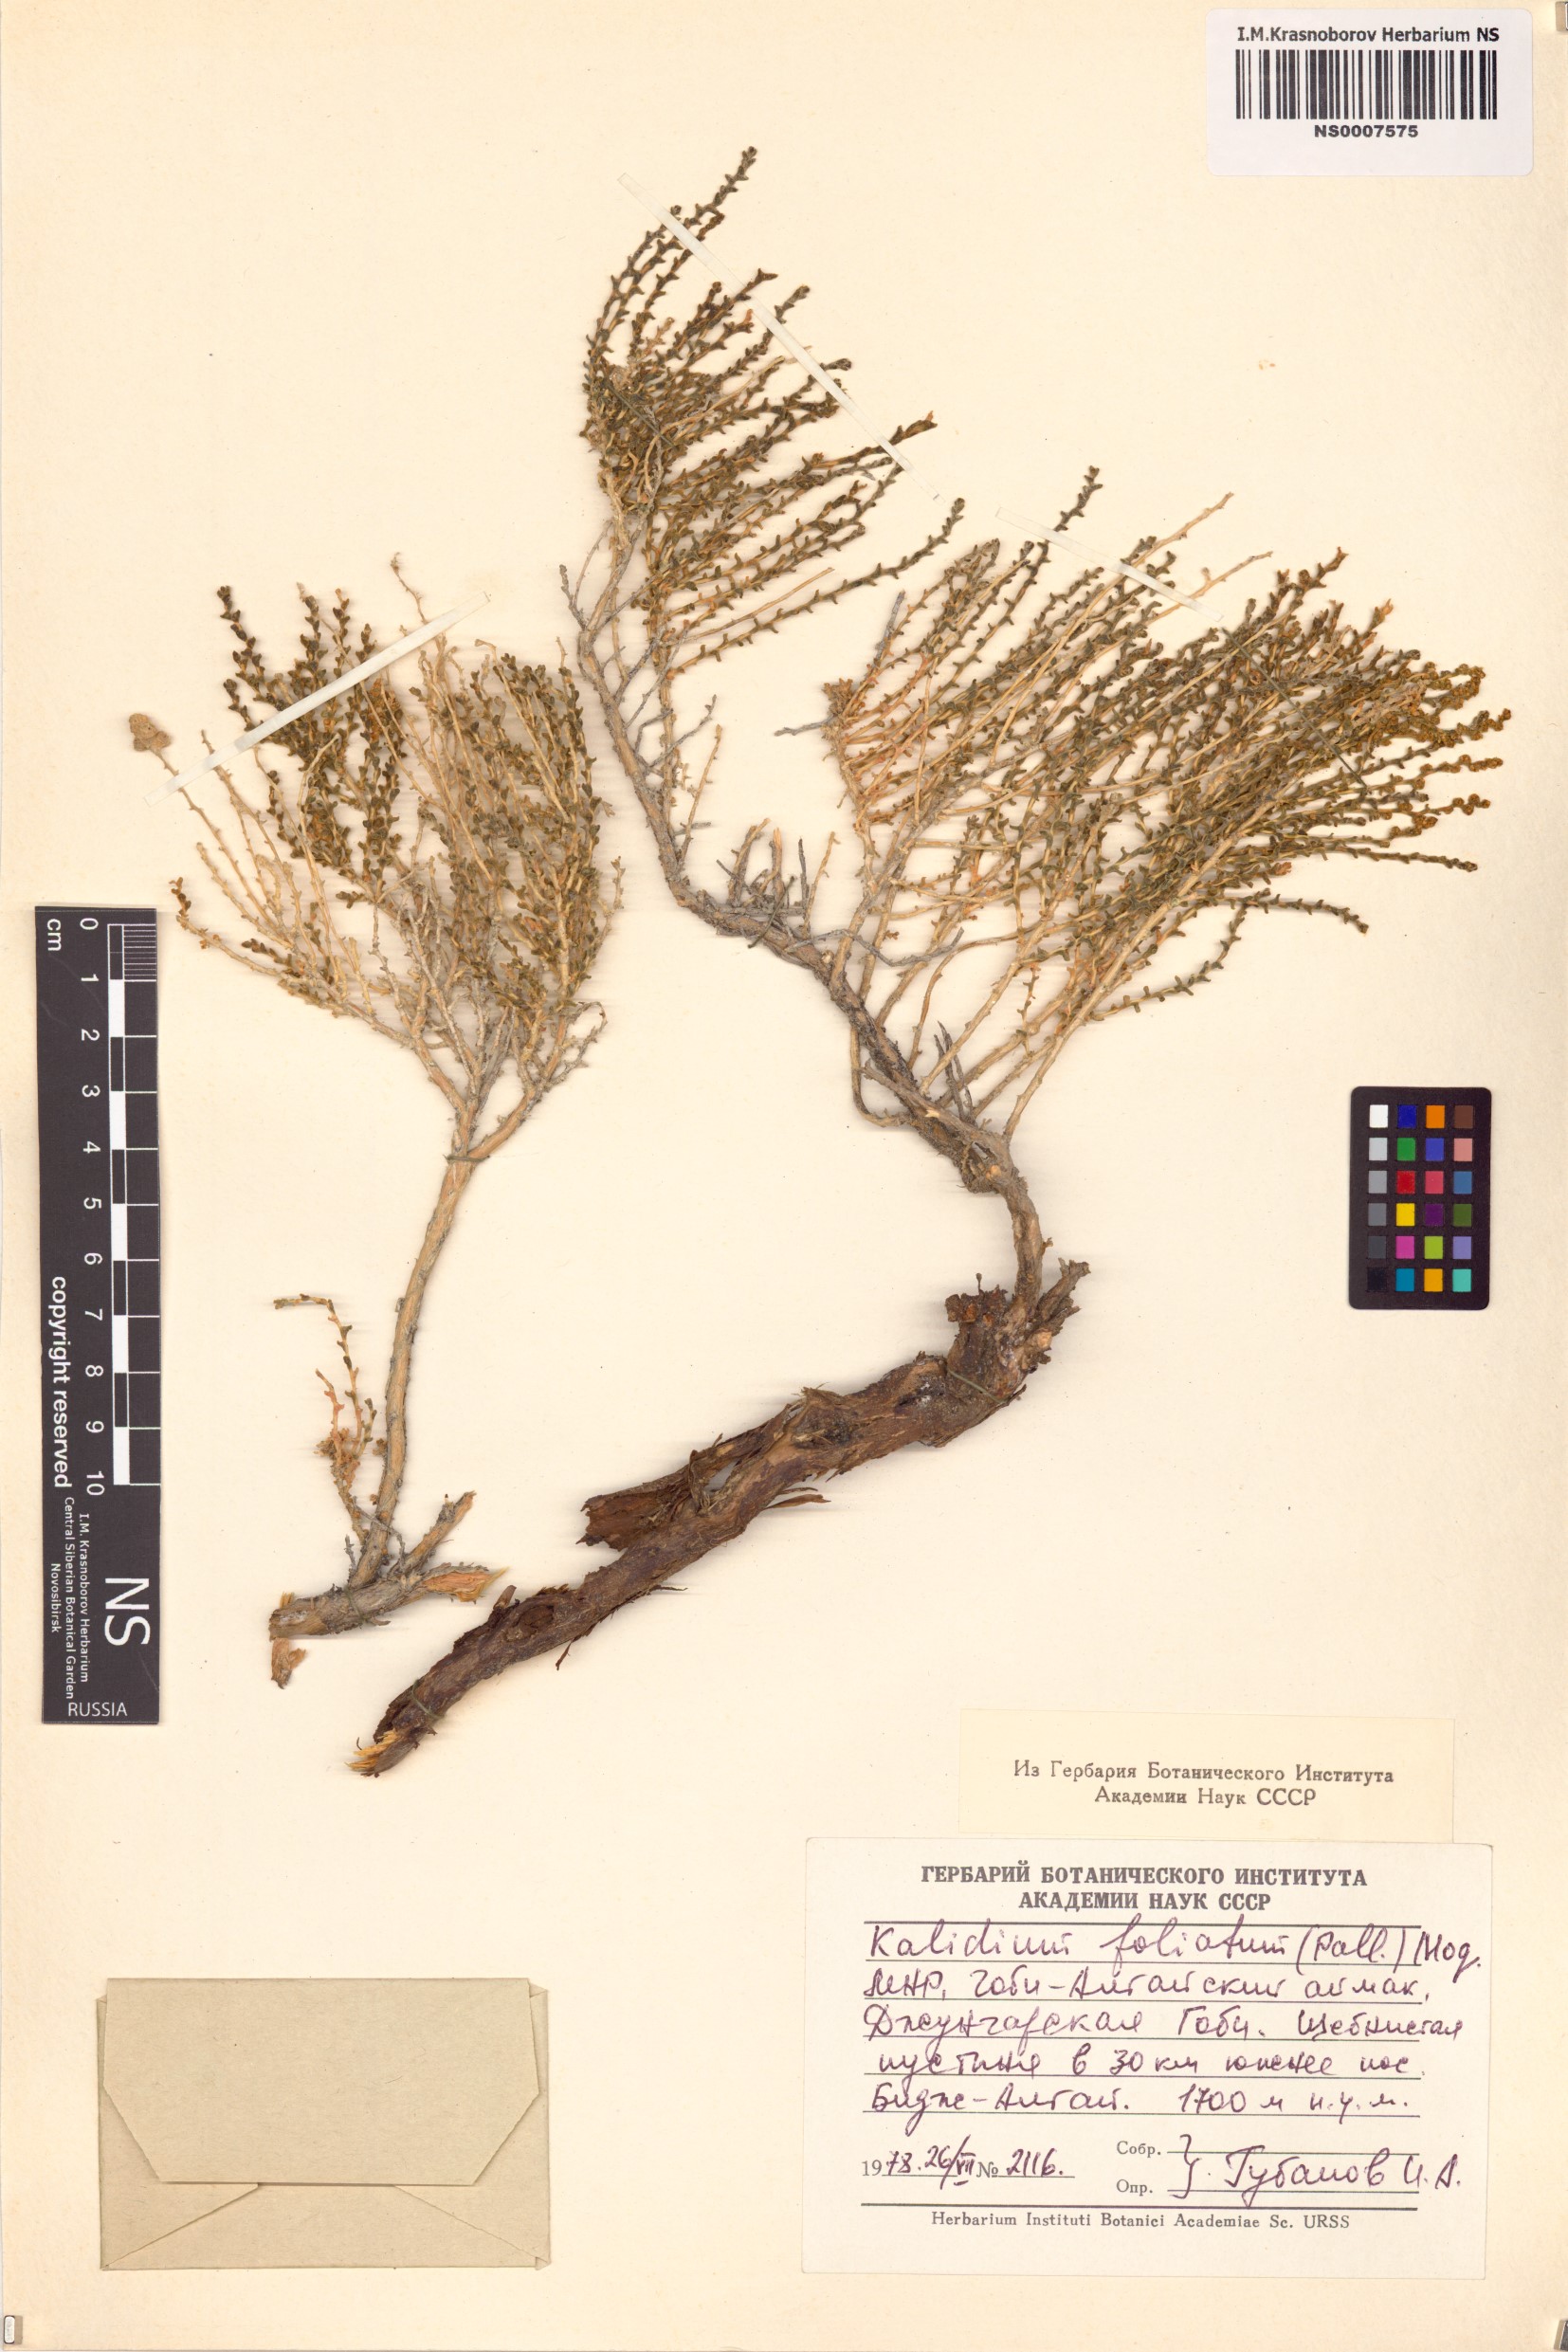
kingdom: Plantae
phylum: Tracheophyta
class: Magnoliopsida
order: Caryophyllales
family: Amaranthaceae
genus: Kalidium
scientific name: Kalidium foliatum
